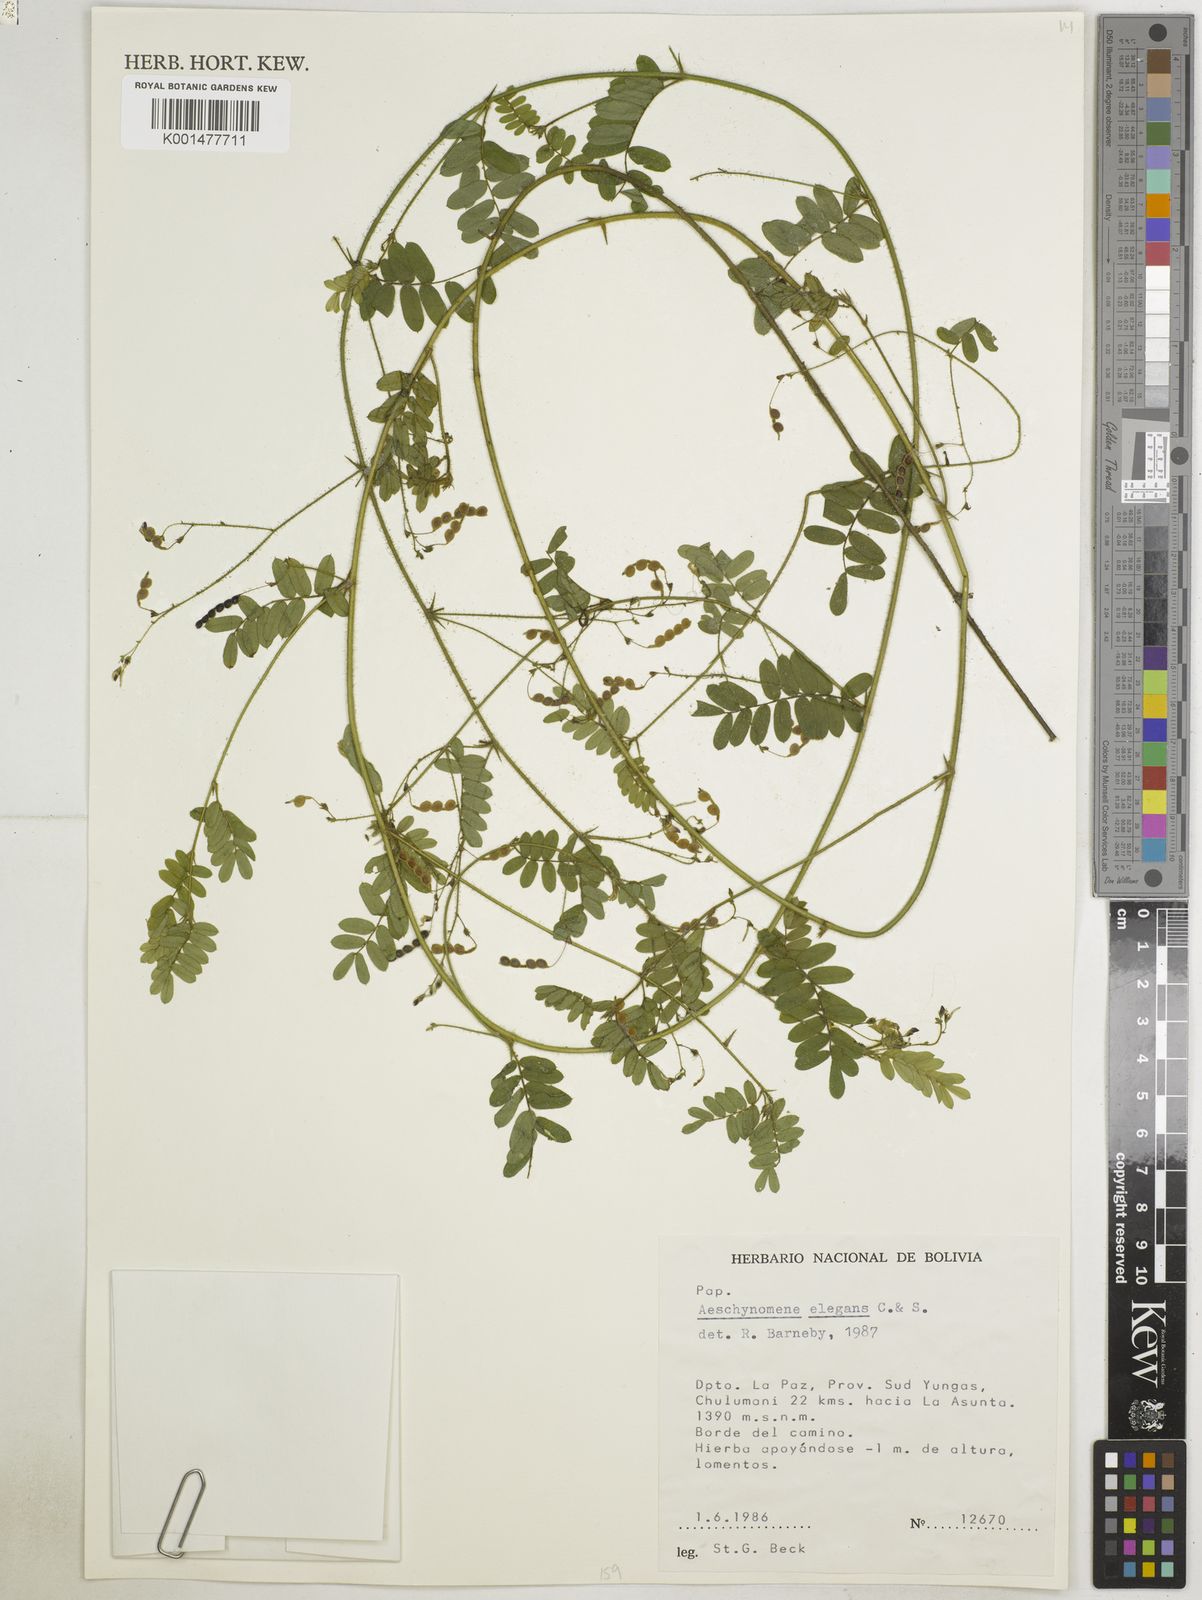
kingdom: Plantae
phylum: Tracheophyta
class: Magnoliopsida
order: Fabales
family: Fabaceae
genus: Ctenodon
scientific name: Ctenodon elegans
